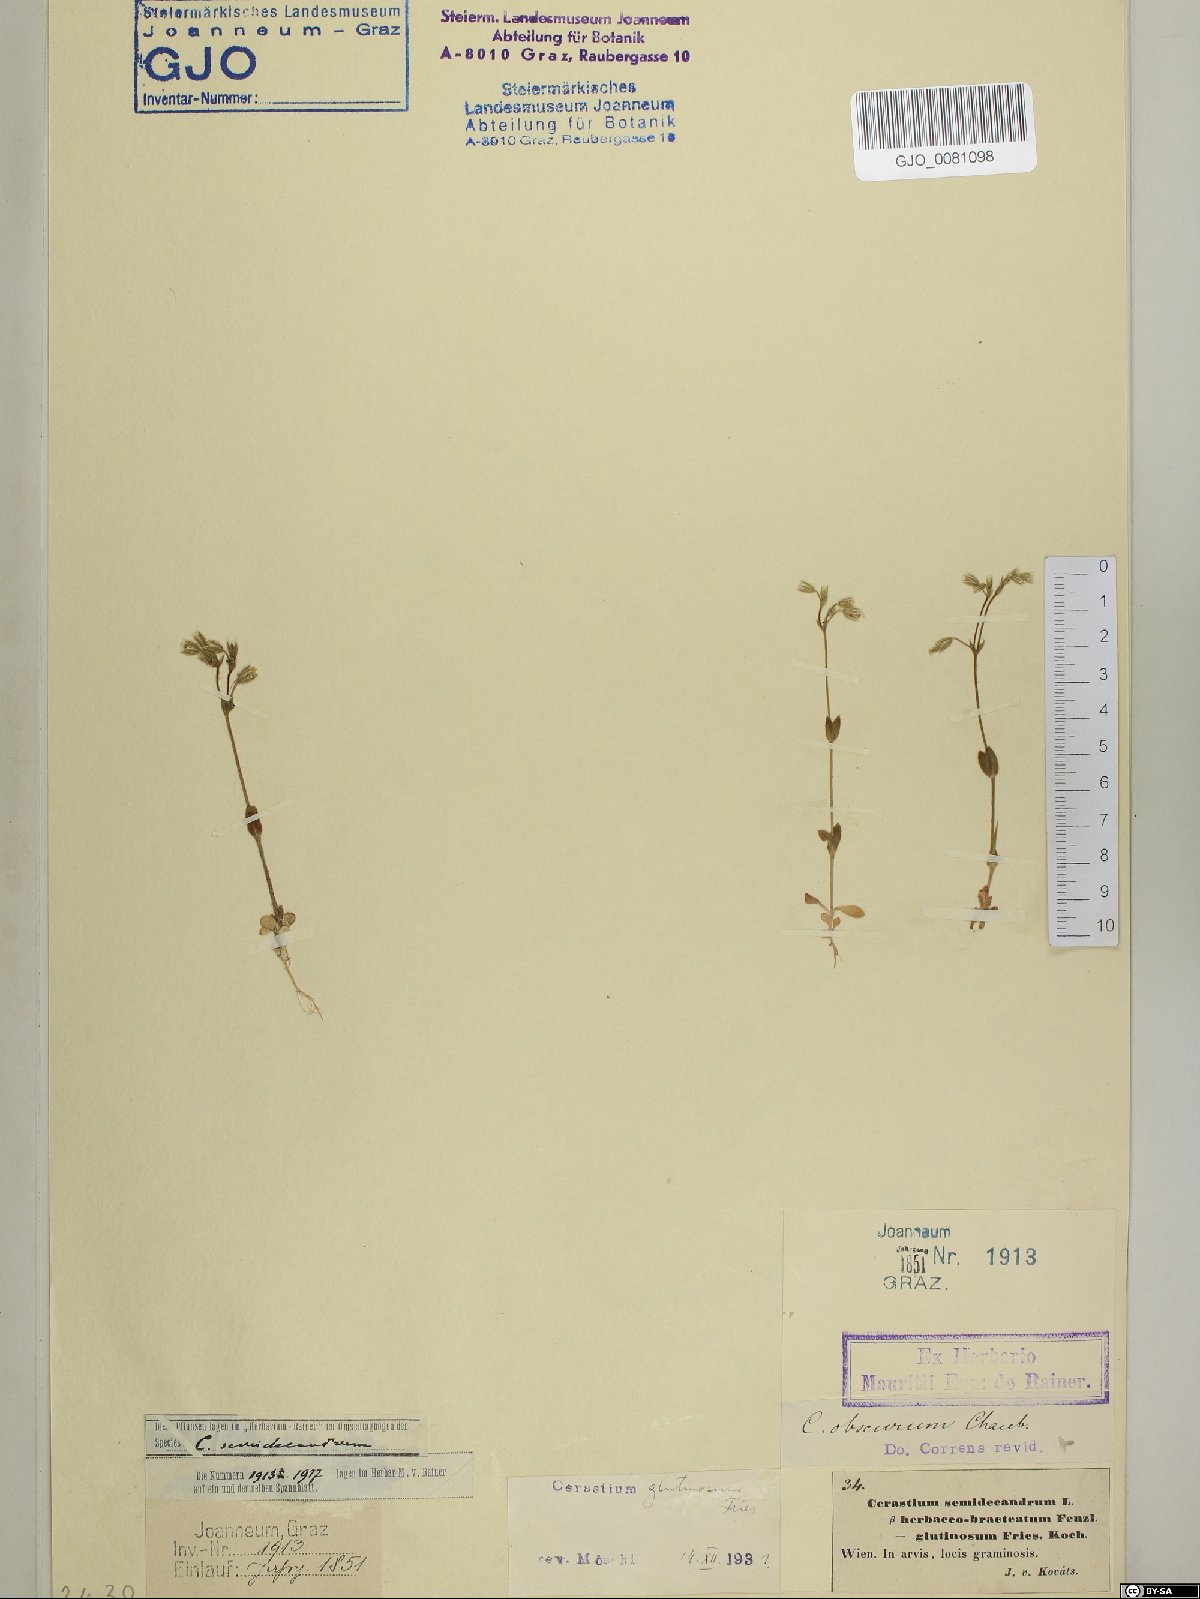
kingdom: Plantae
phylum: Tracheophyta
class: Magnoliopsida
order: Caryophyllales
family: Caryophyllaceae
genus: Cerastium
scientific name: Cerastium glutinosum
